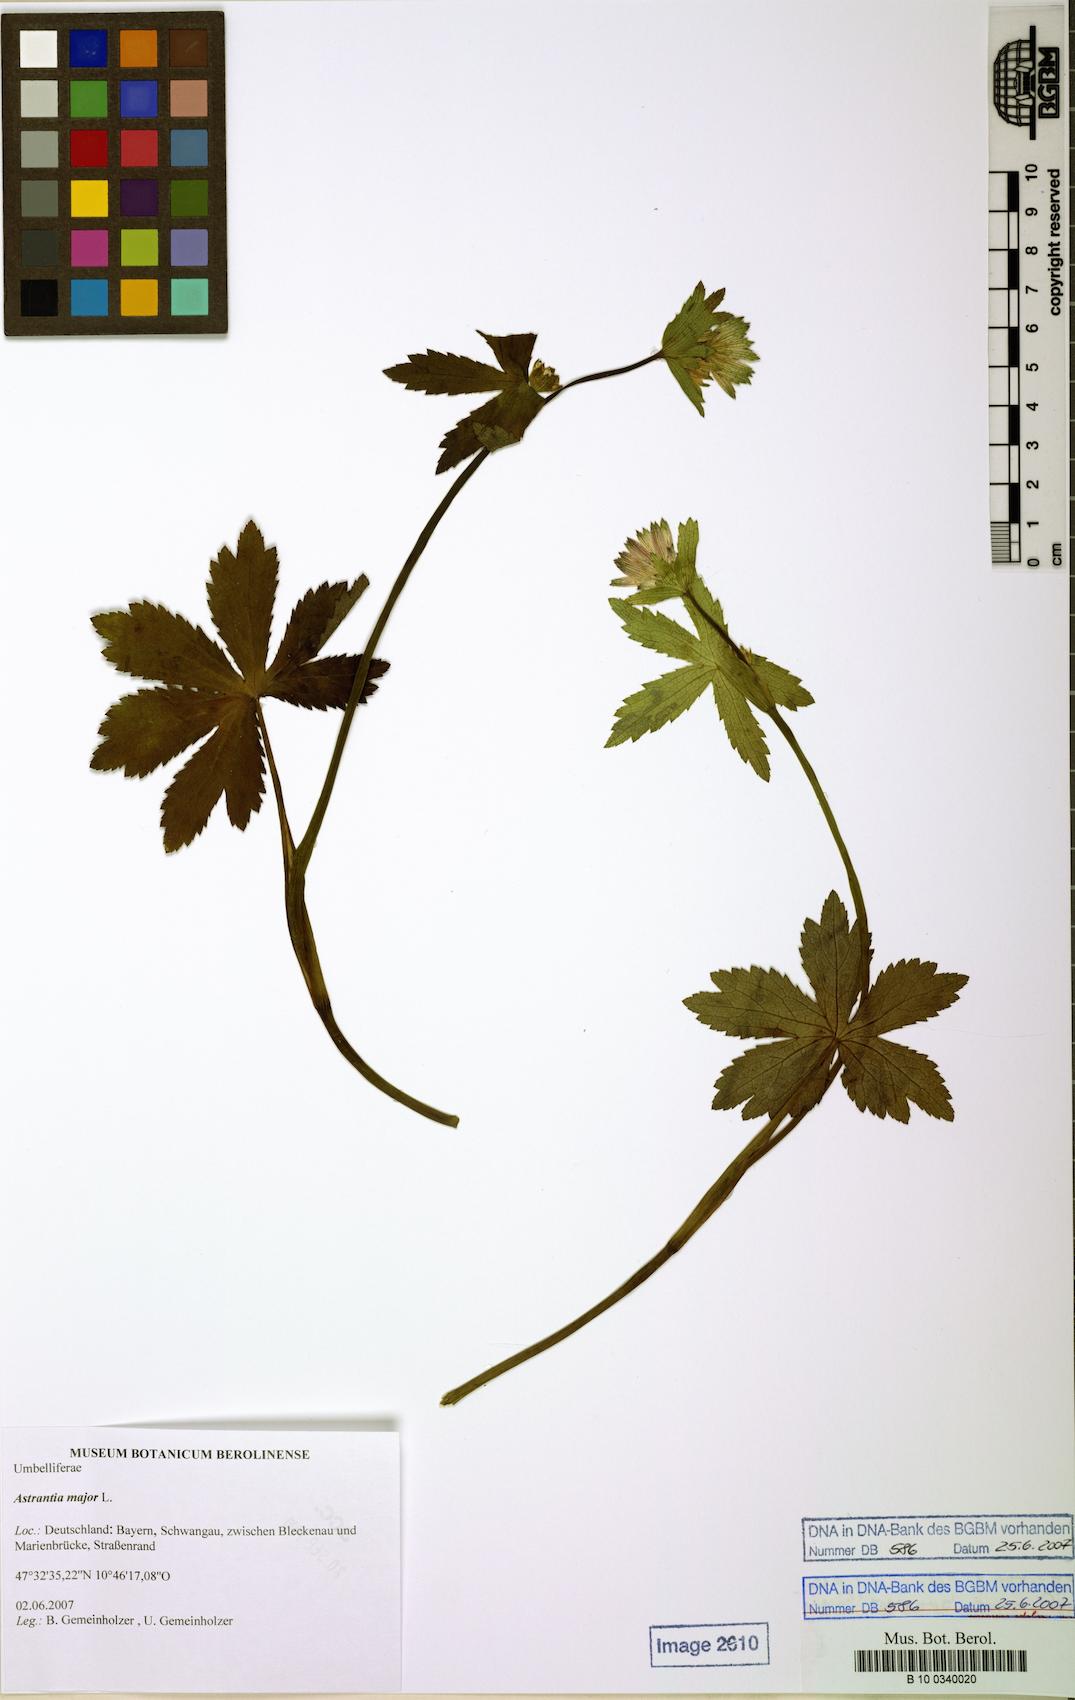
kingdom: Plantae
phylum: Tracheophyta
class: Magnoliopsida
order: Apiales
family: Apiaceae
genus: Astrantia
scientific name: Astrantia major
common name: Greater masterwort
